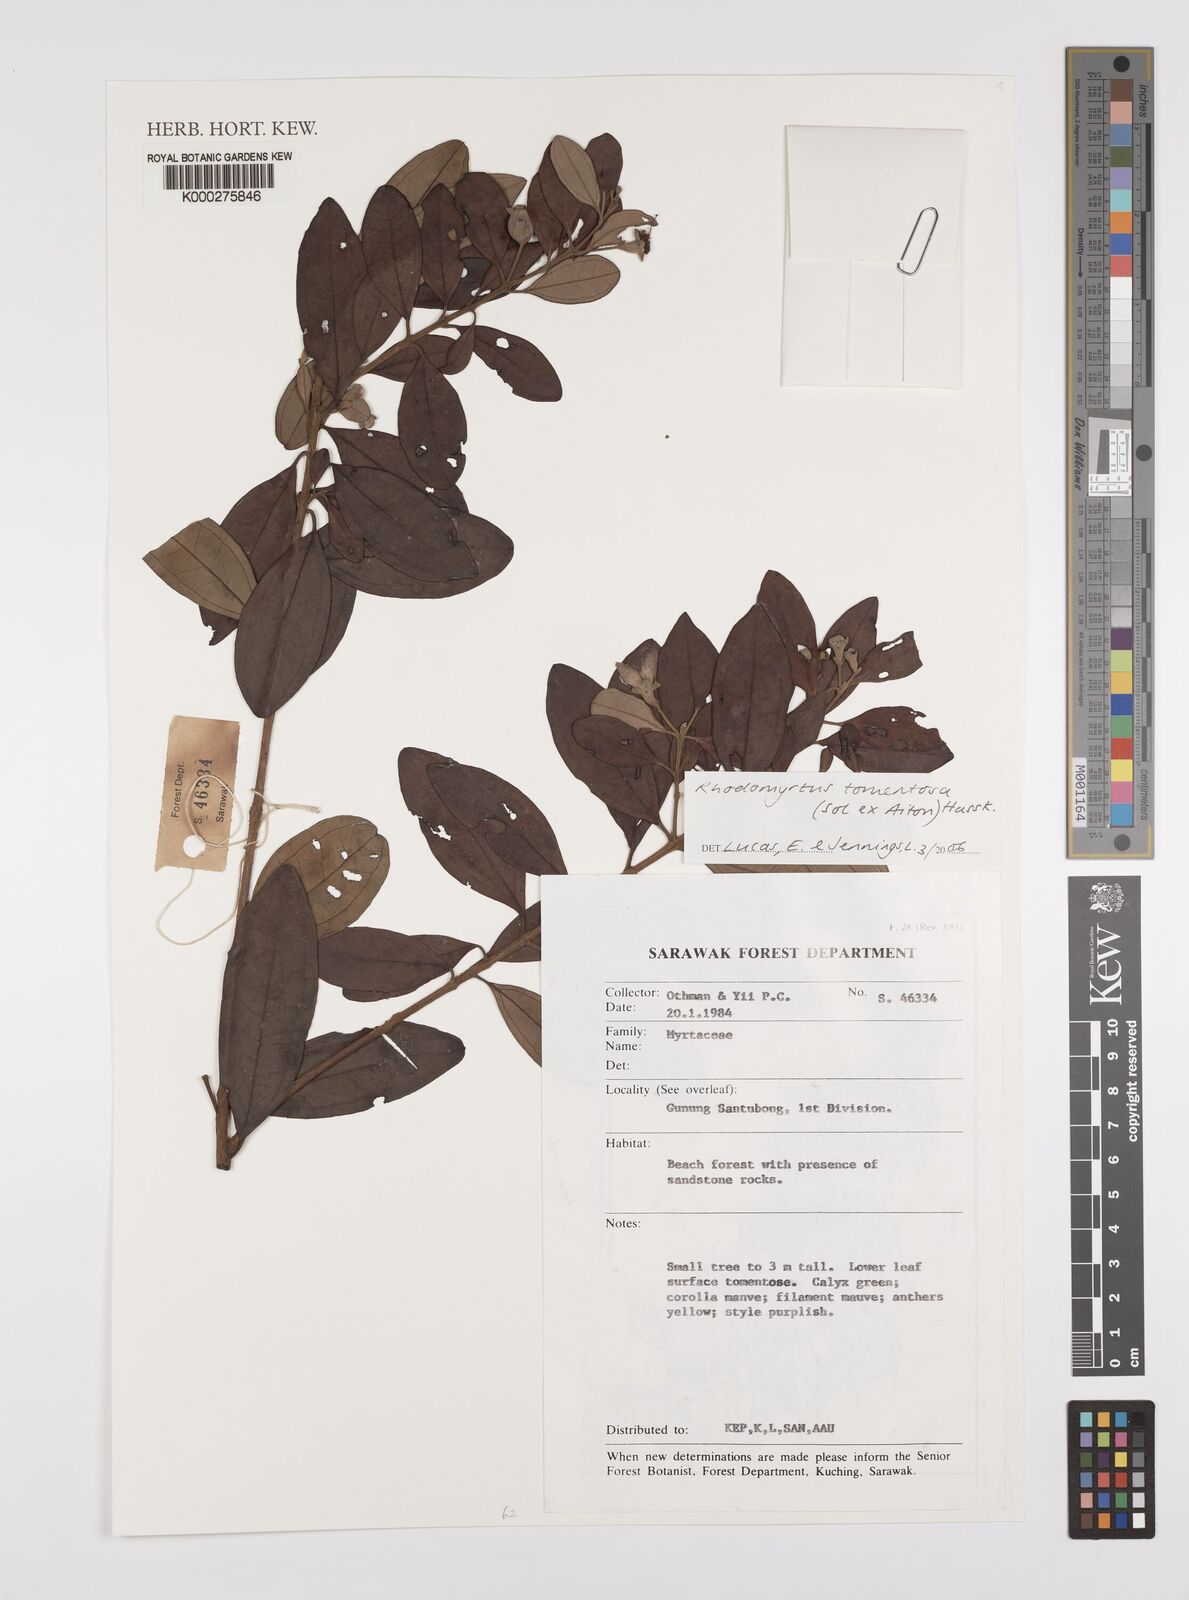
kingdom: Plantae
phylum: Tracheophyta
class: Magnoliopsida
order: Myrtales
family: Myrtaceae
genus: Rhodomyrtus
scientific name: Rhodomyrtus tomentosa
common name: Rose myrtle
